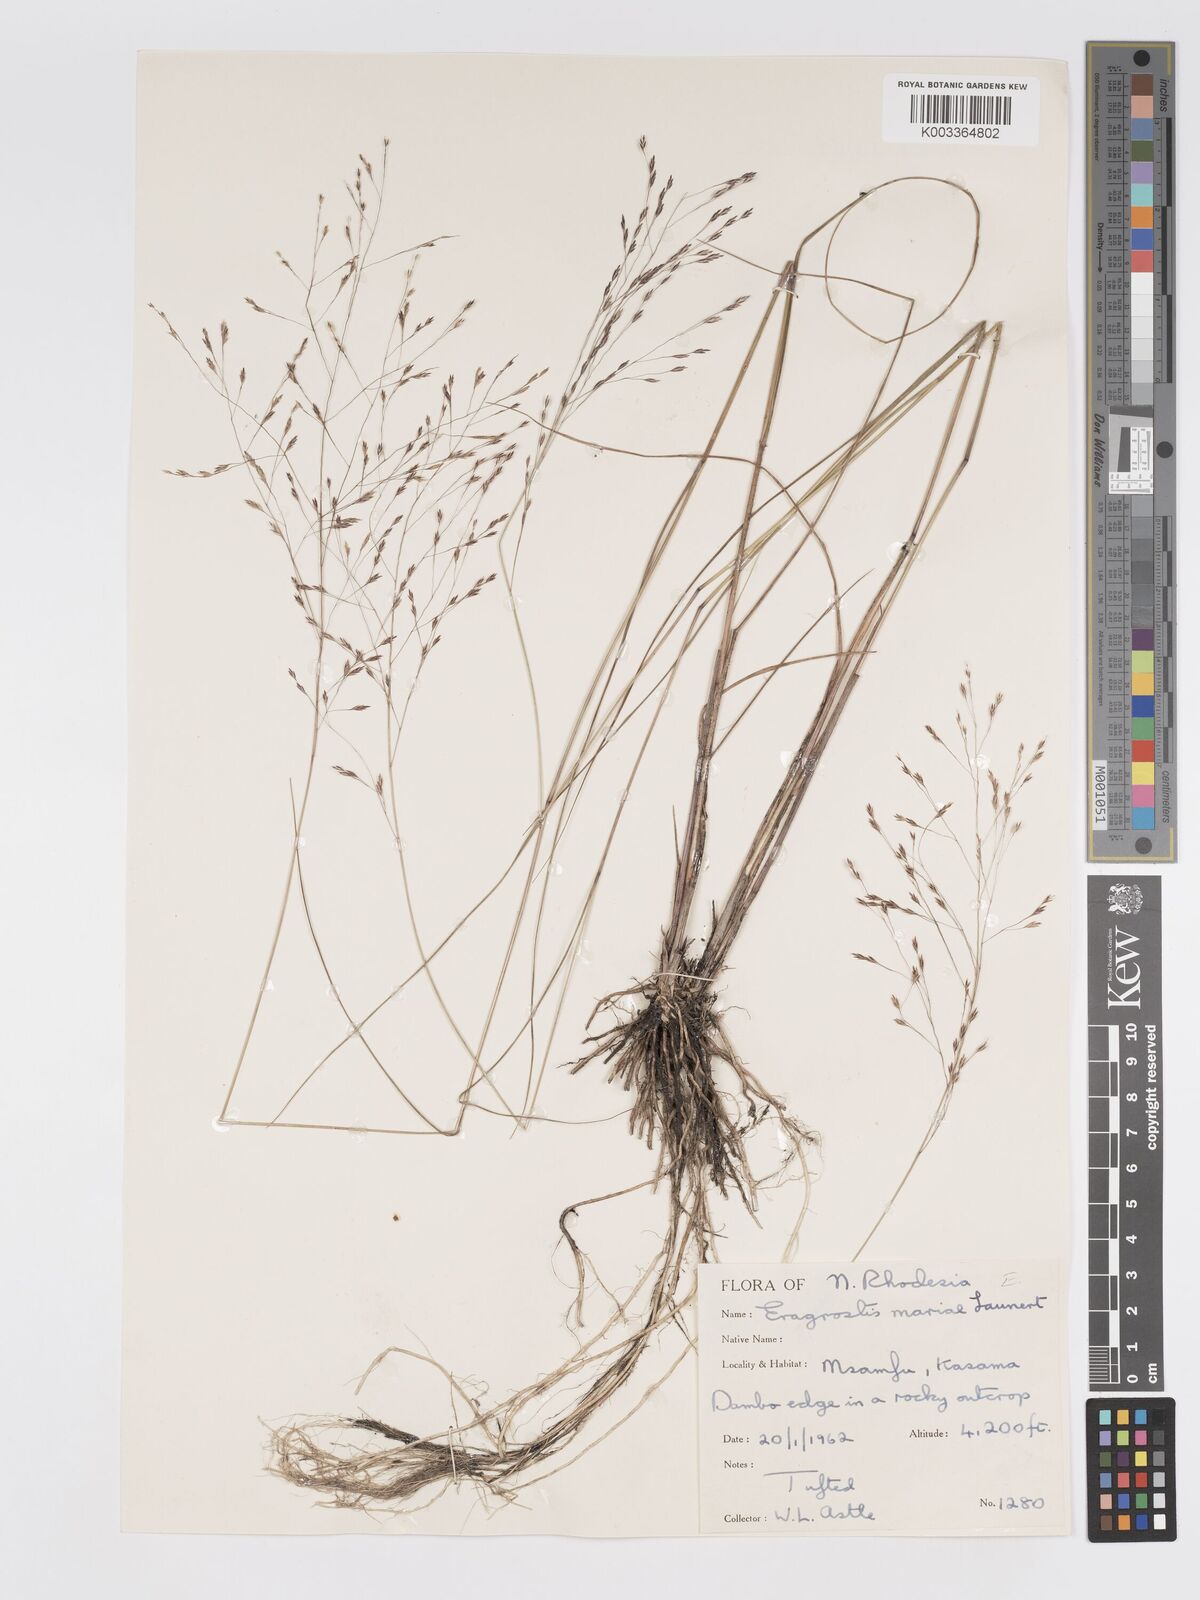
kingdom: Plantae
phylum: Tracheophyta
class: Liliopsida
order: Poales
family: Poaceae
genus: Eragrostis
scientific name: Eragrostis mariae
